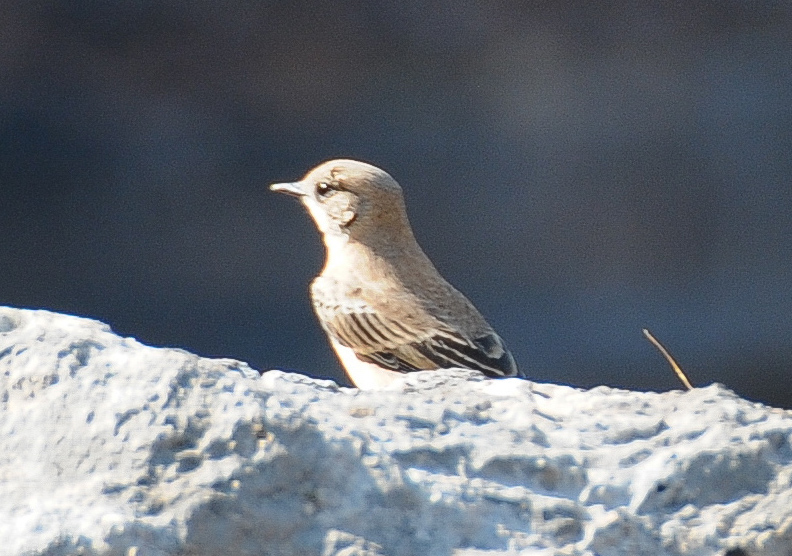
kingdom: Animalia
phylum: Chordata
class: Aves
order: Passeriformes
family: Muscicapidae
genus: Oenanthe
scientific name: Oenanthe hispanica
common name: Black-eared wheatear
